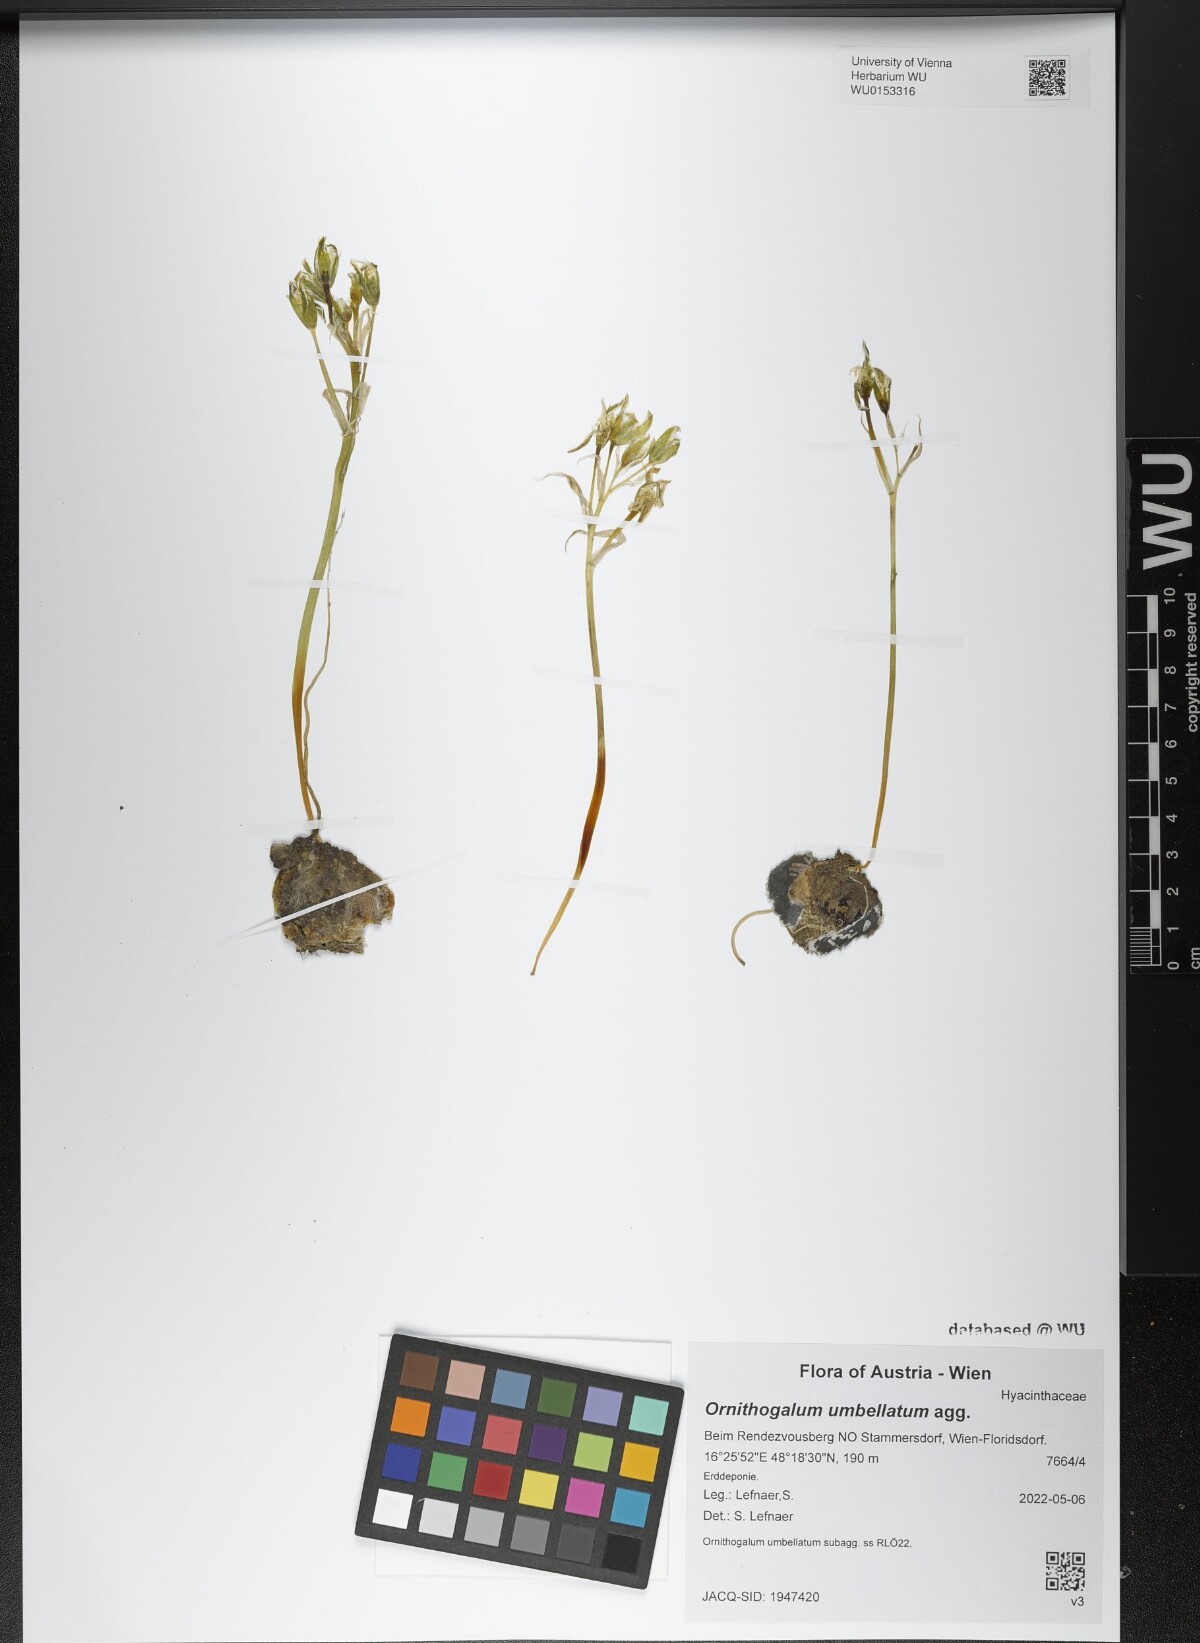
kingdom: Plantae
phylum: Tracheophyta
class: Liliopsida
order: Asparagales
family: Asparagaceae
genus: Ornithogalum
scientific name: Ornithogalum umbellatum
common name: Garden star-of-bethlehem
